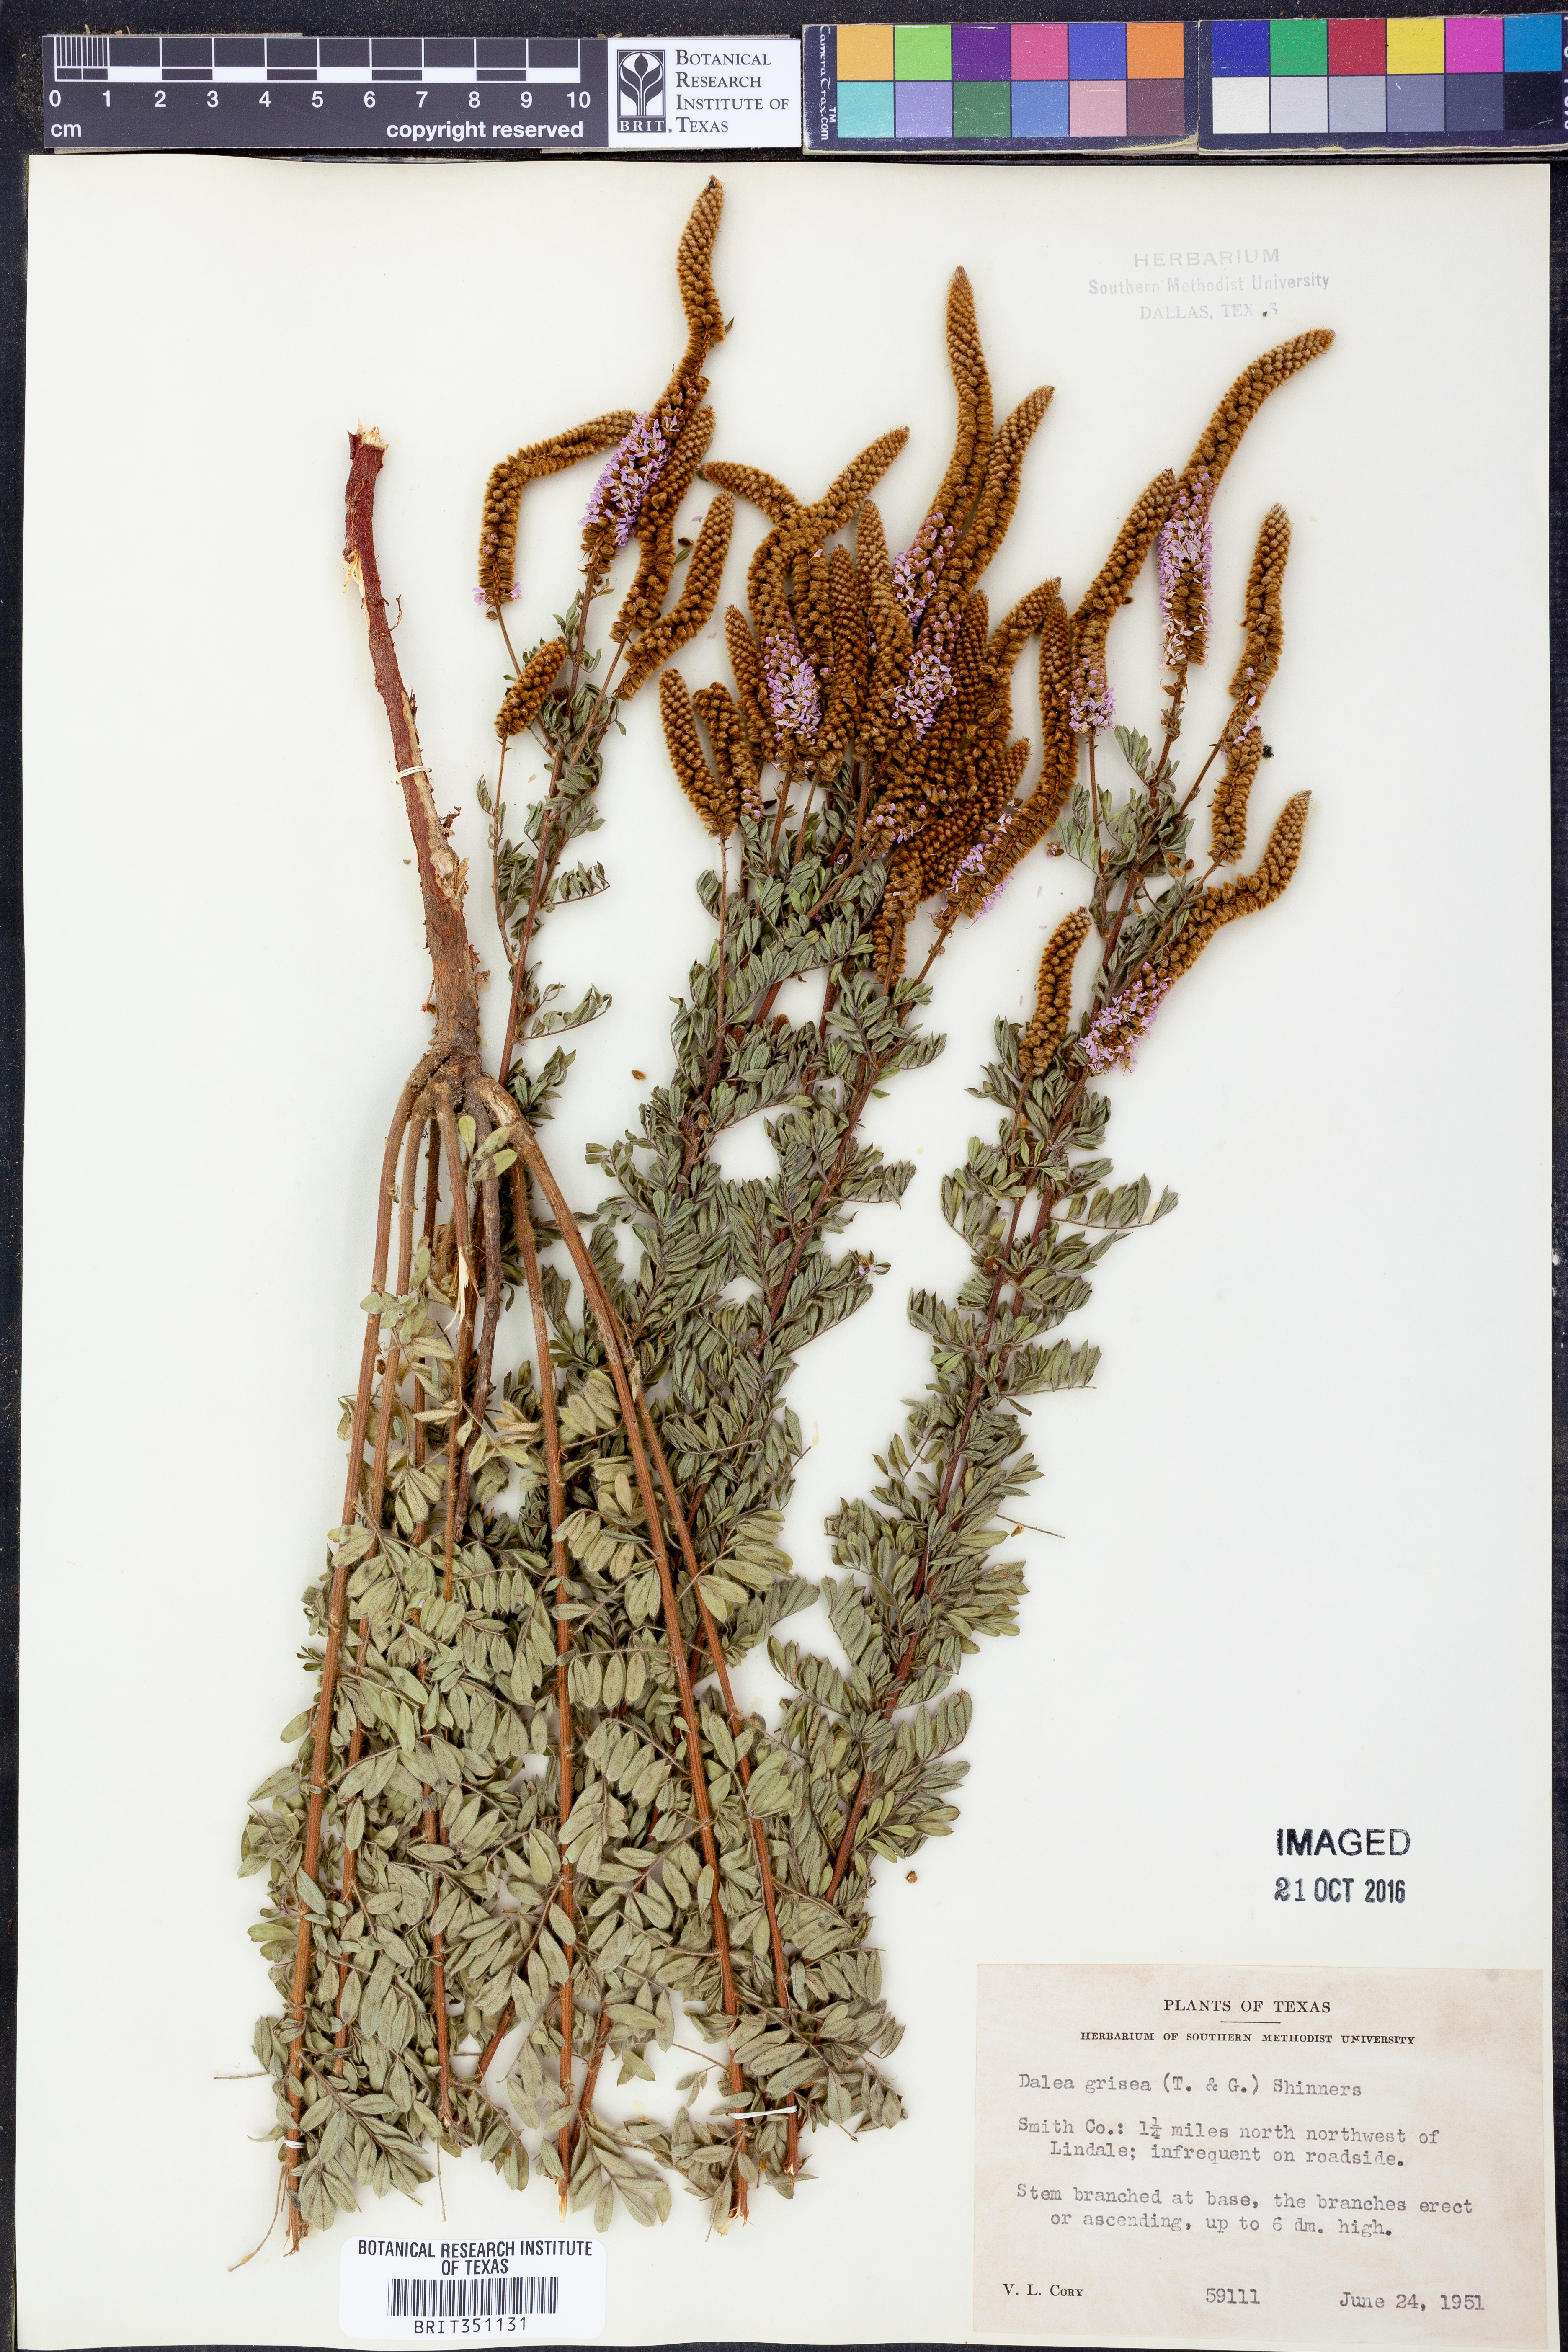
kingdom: Plantae
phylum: Tracheophyta
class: Magnoliopsida
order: Fabales
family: Fabaceae
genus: Dalea
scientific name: Dalea villosa
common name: Silky prairie-clover
